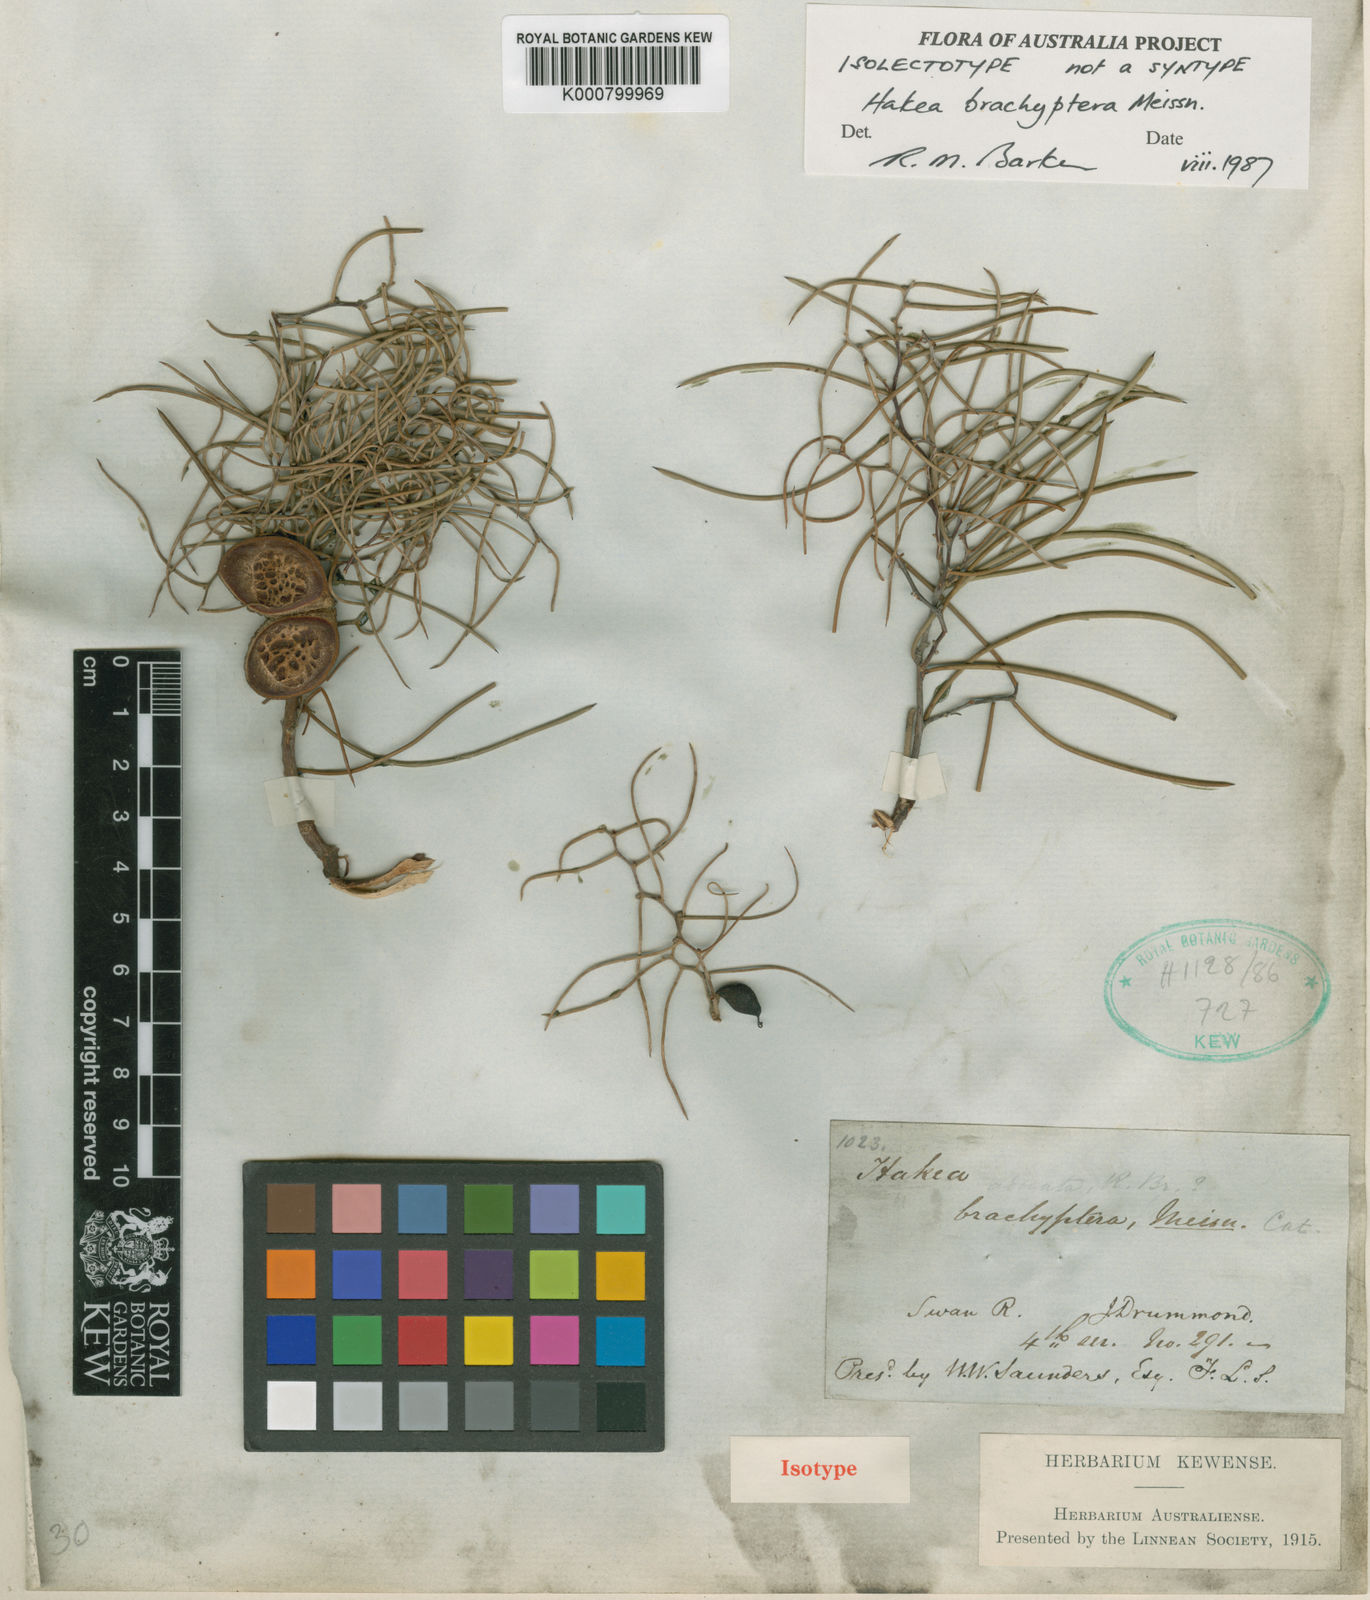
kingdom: Plantae
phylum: Tracheophyta
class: Magnoliopsida
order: Proteales
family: Proteaceae
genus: Hakea
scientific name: Hakea brachyptera
